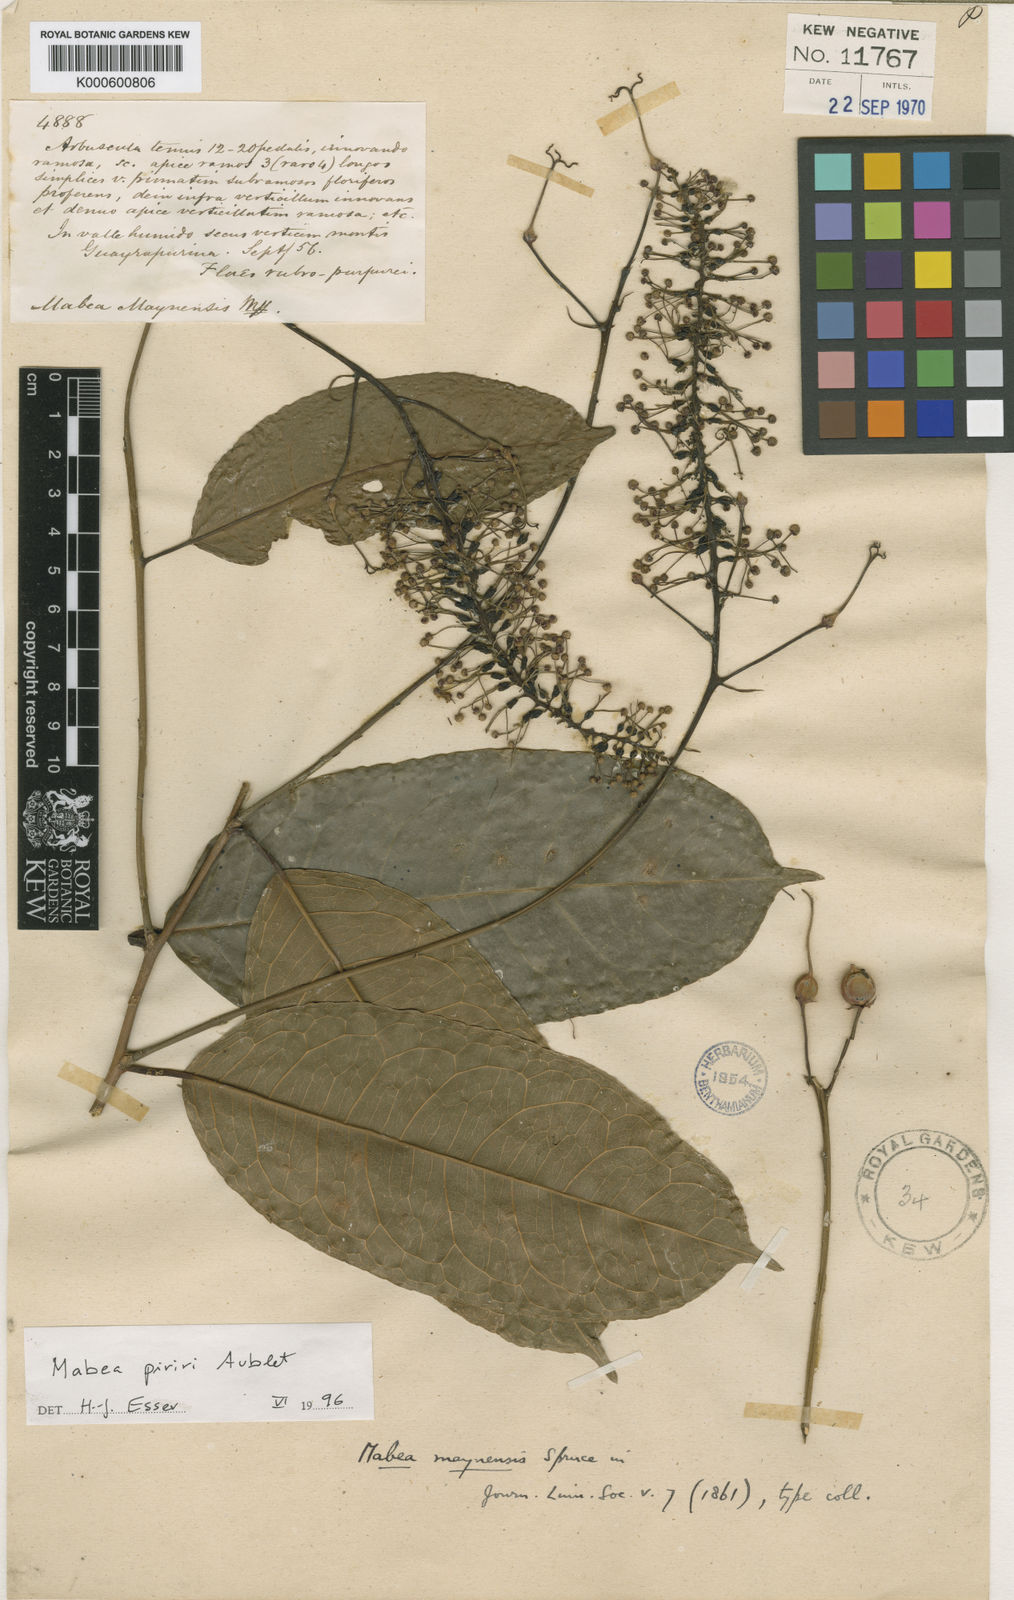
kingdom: Plantae
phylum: Tracheophyta
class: Magnoliopsida
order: Malpighiales
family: Euphorbiaceae
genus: Mabea
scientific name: Mabea piriri
